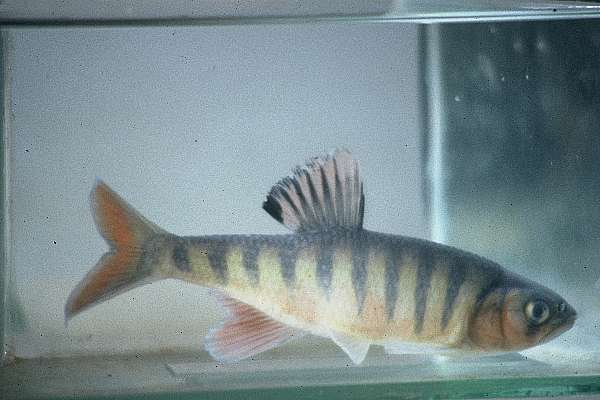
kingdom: Animalia
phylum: Chordata
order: Cypriniformes
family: Cyprinidae
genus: Opsaridium
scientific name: Opsaridium peringueyi
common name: Southern barred minnow
